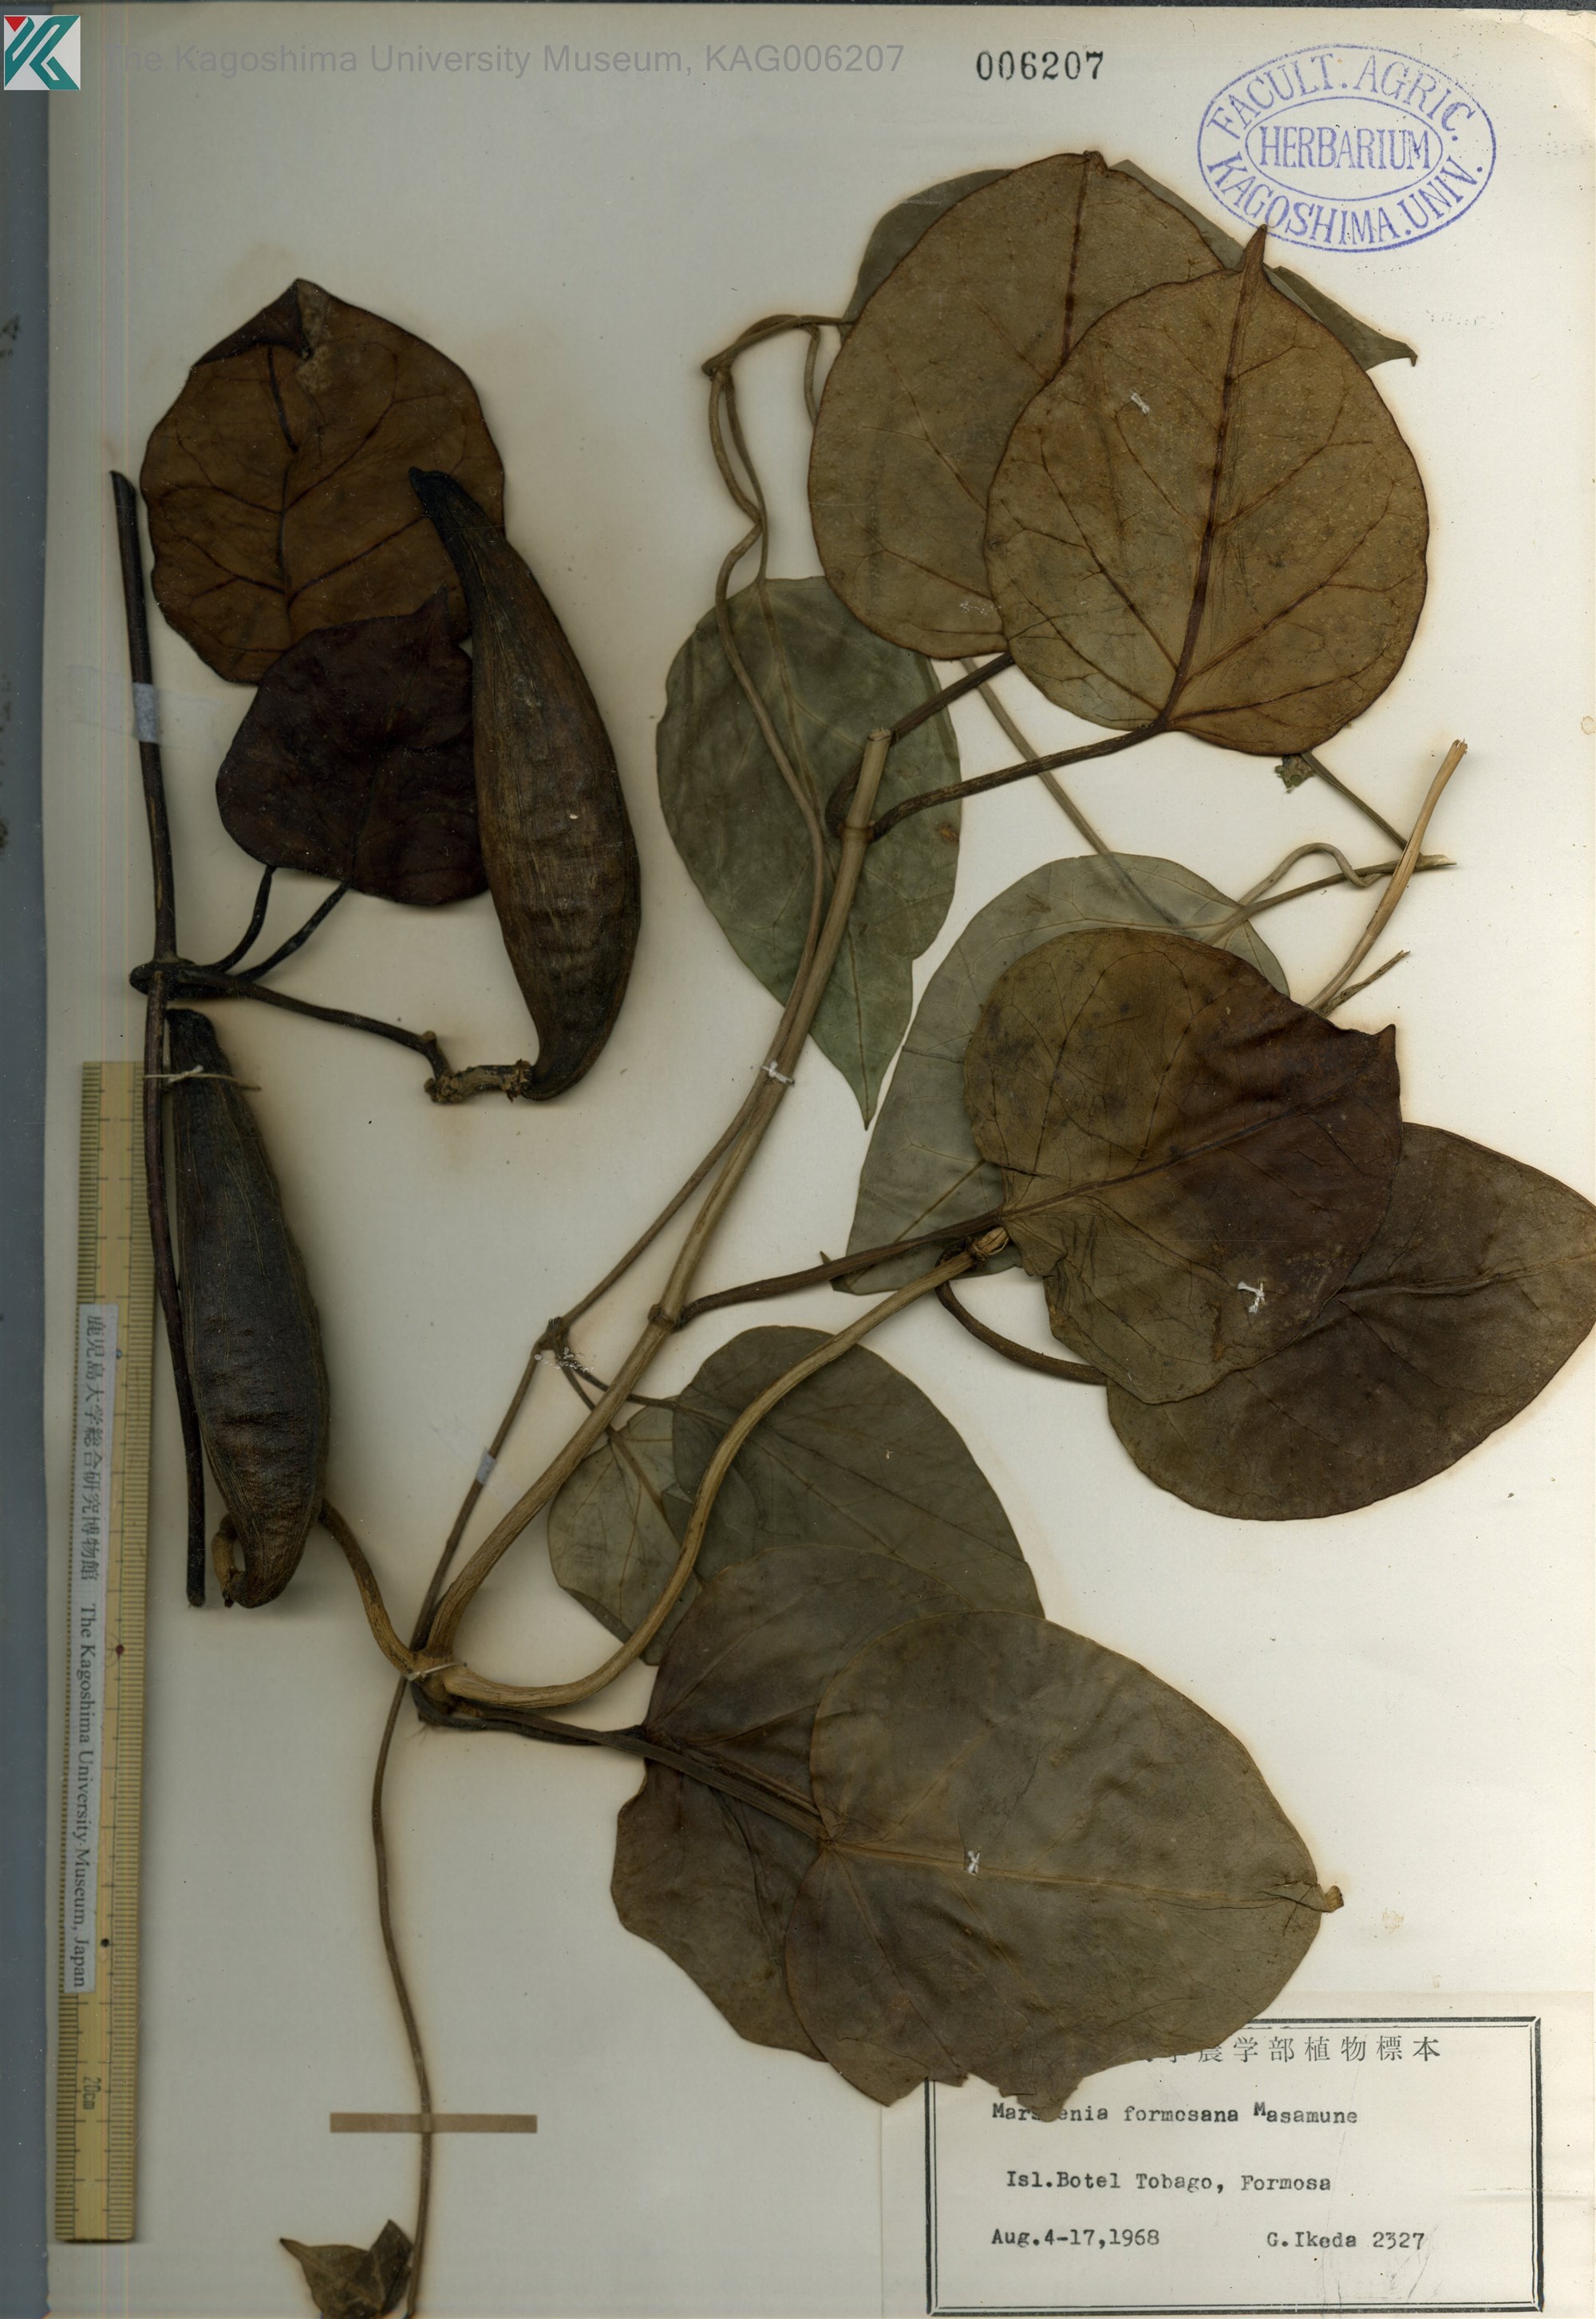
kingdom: Plantae
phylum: Tracheophyta
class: Magnoliopsida
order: Gentianales
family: Apocynaceae
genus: Sinomarsdenia
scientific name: Sinomarsdenia formosana
